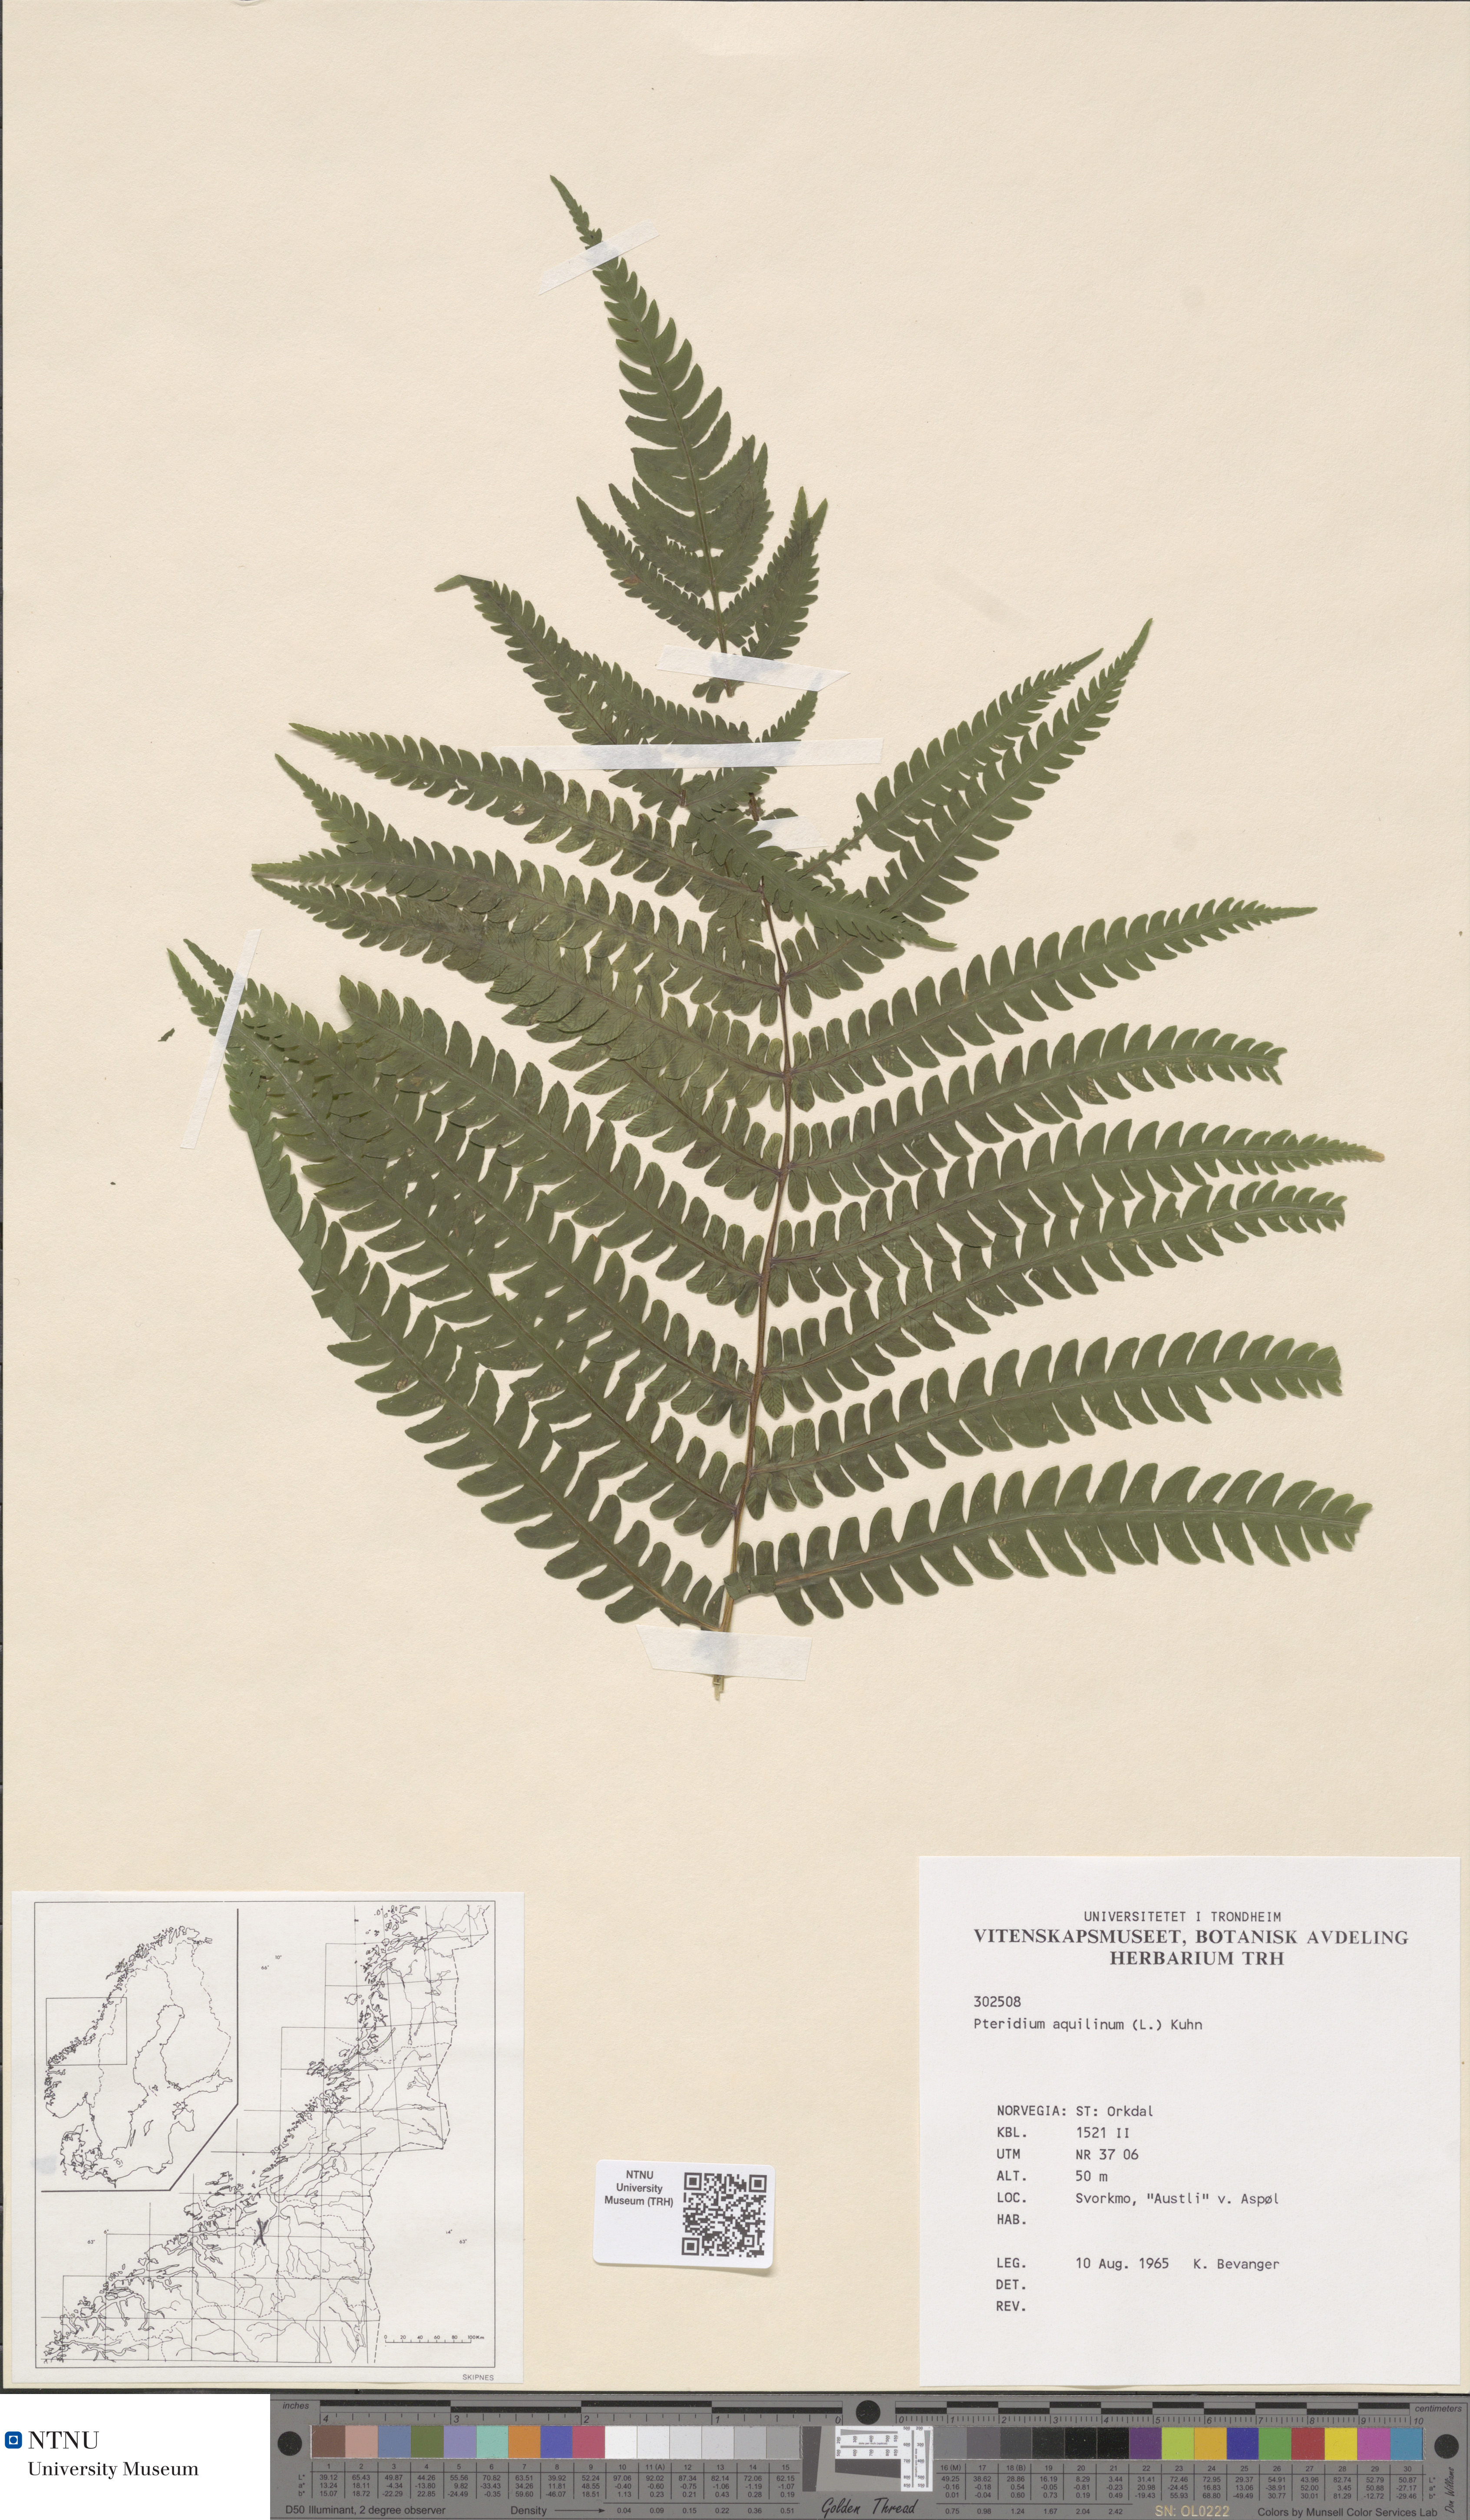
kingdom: Plantae
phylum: Tracheophyta
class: Polypodiopsida
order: Polypodiales
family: Dennstaedtiaceae
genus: Pteridium
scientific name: Pteridium aquilinum
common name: Bracken
